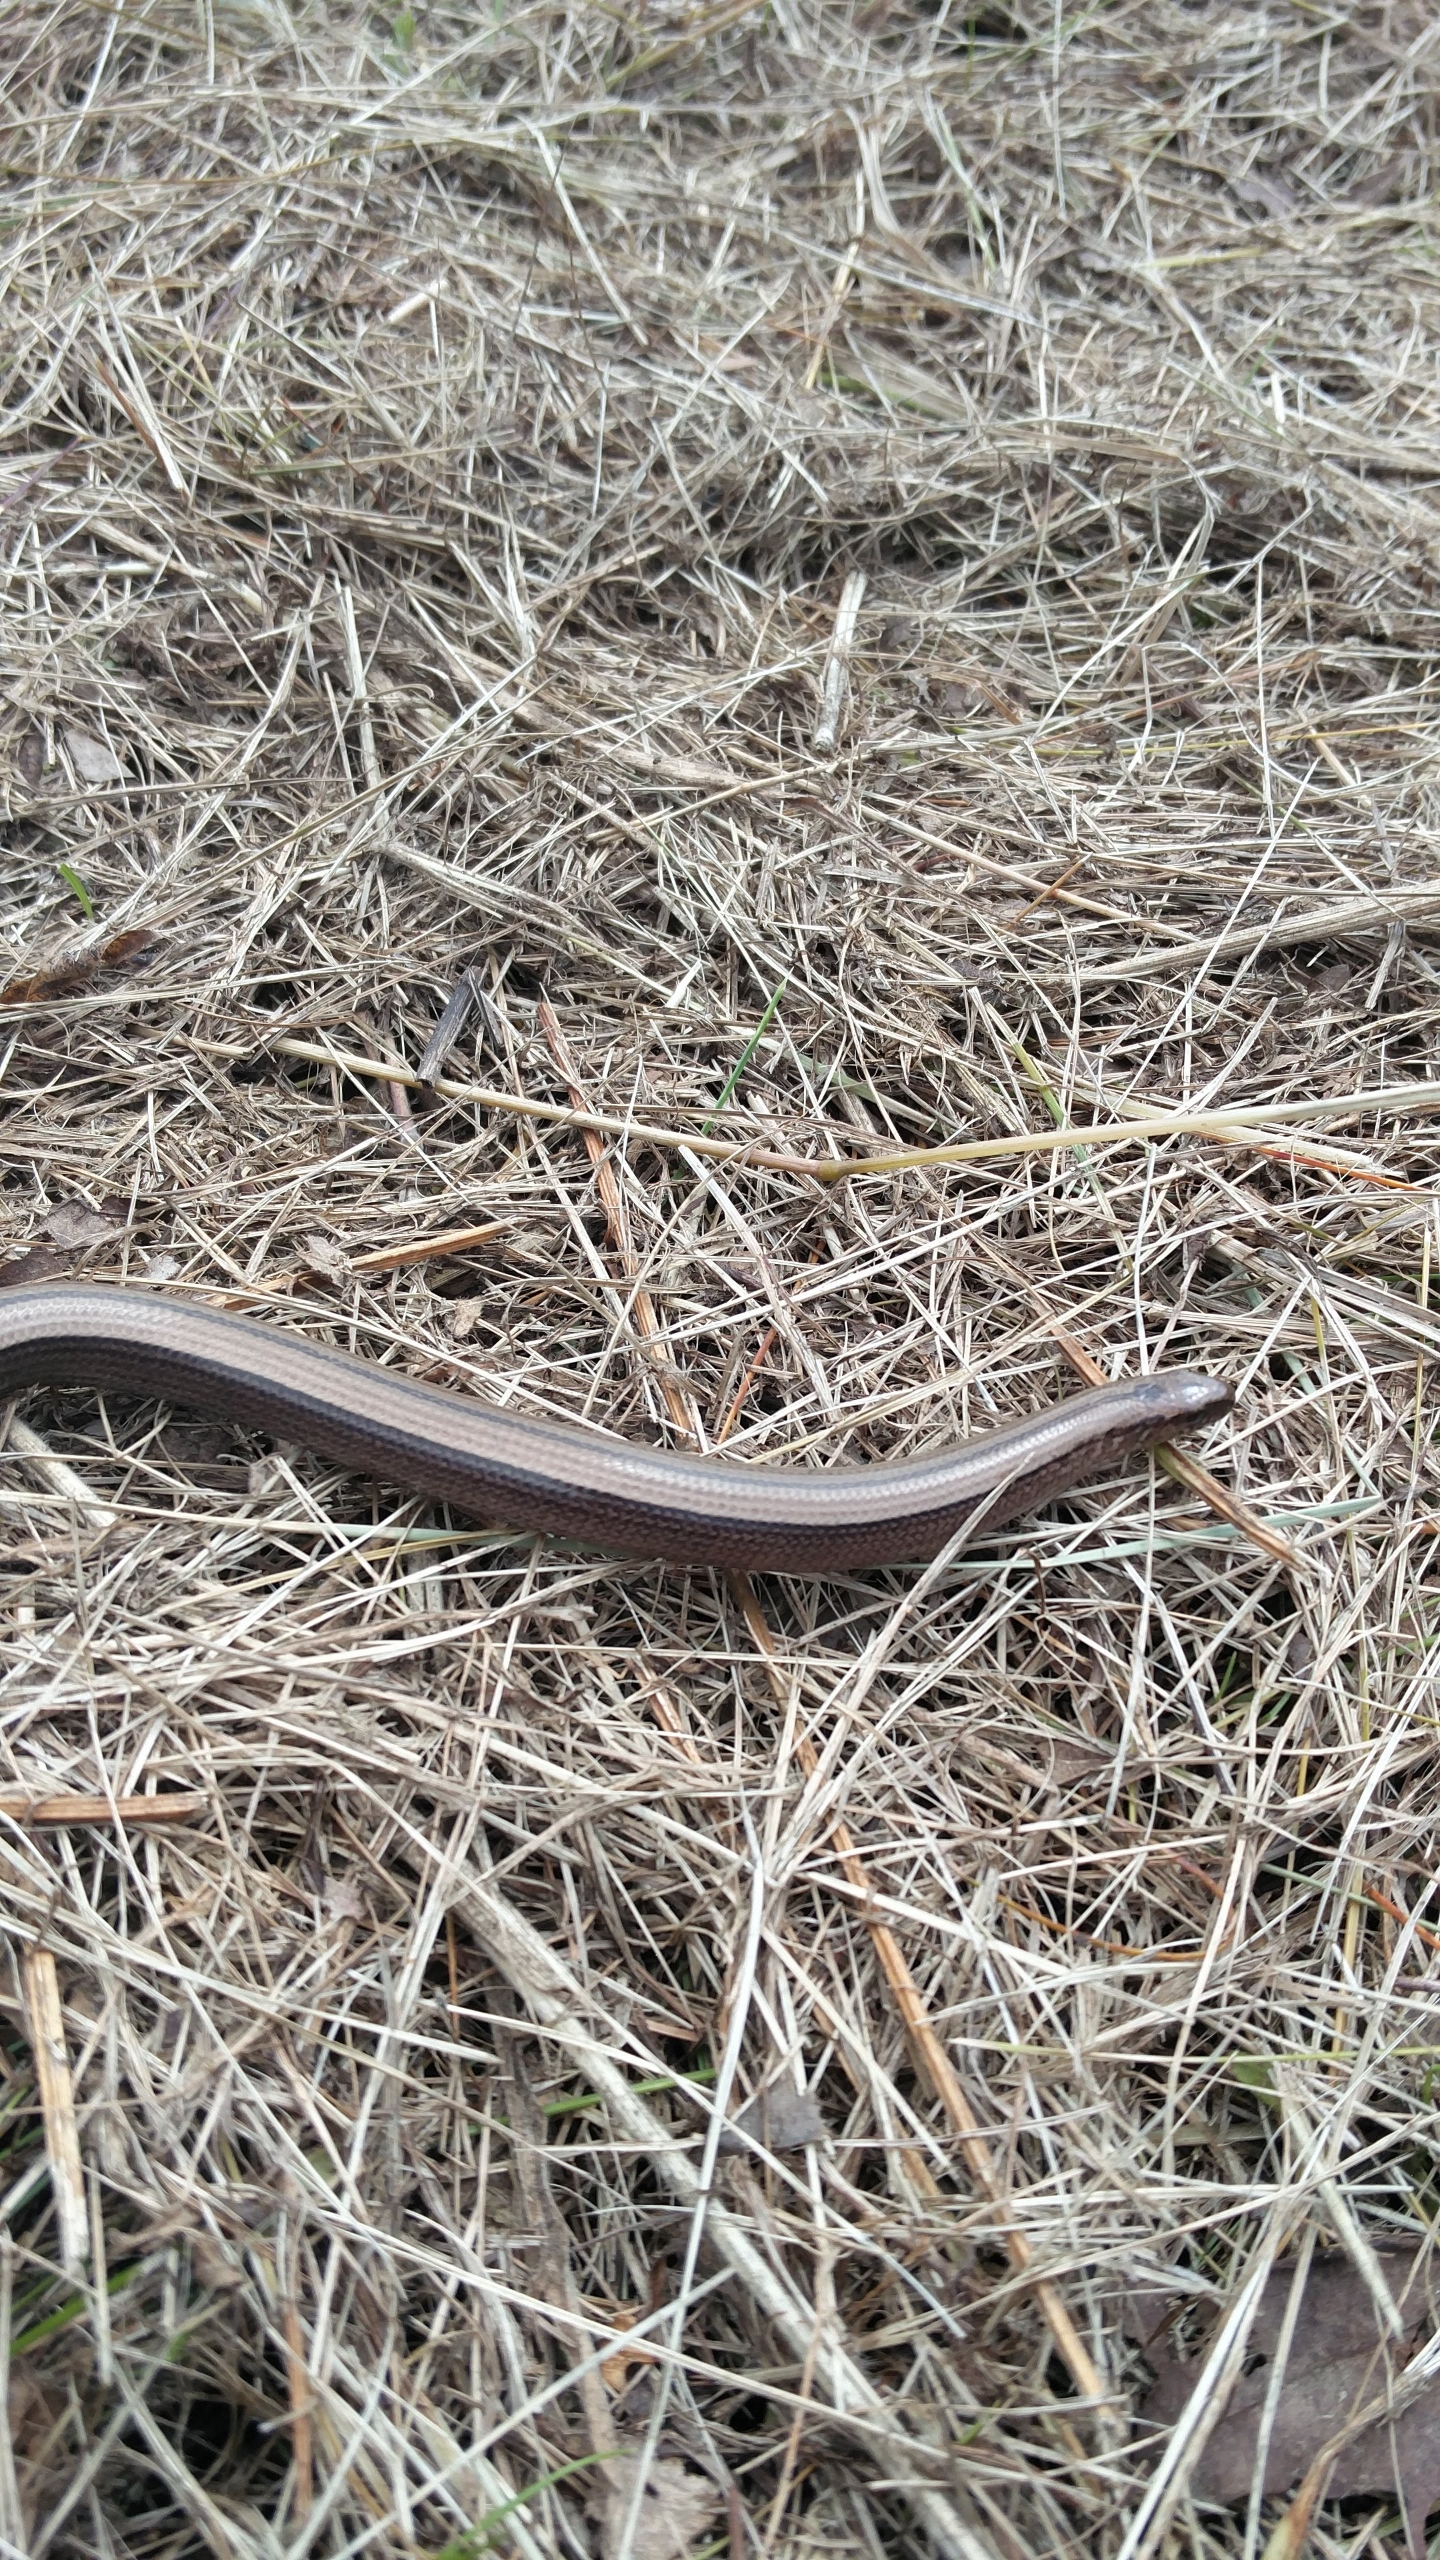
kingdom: Animalia
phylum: Chordata
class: Squamata
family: Anguidae
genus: Anguis
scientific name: Anguis fragilis
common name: Stålorm
